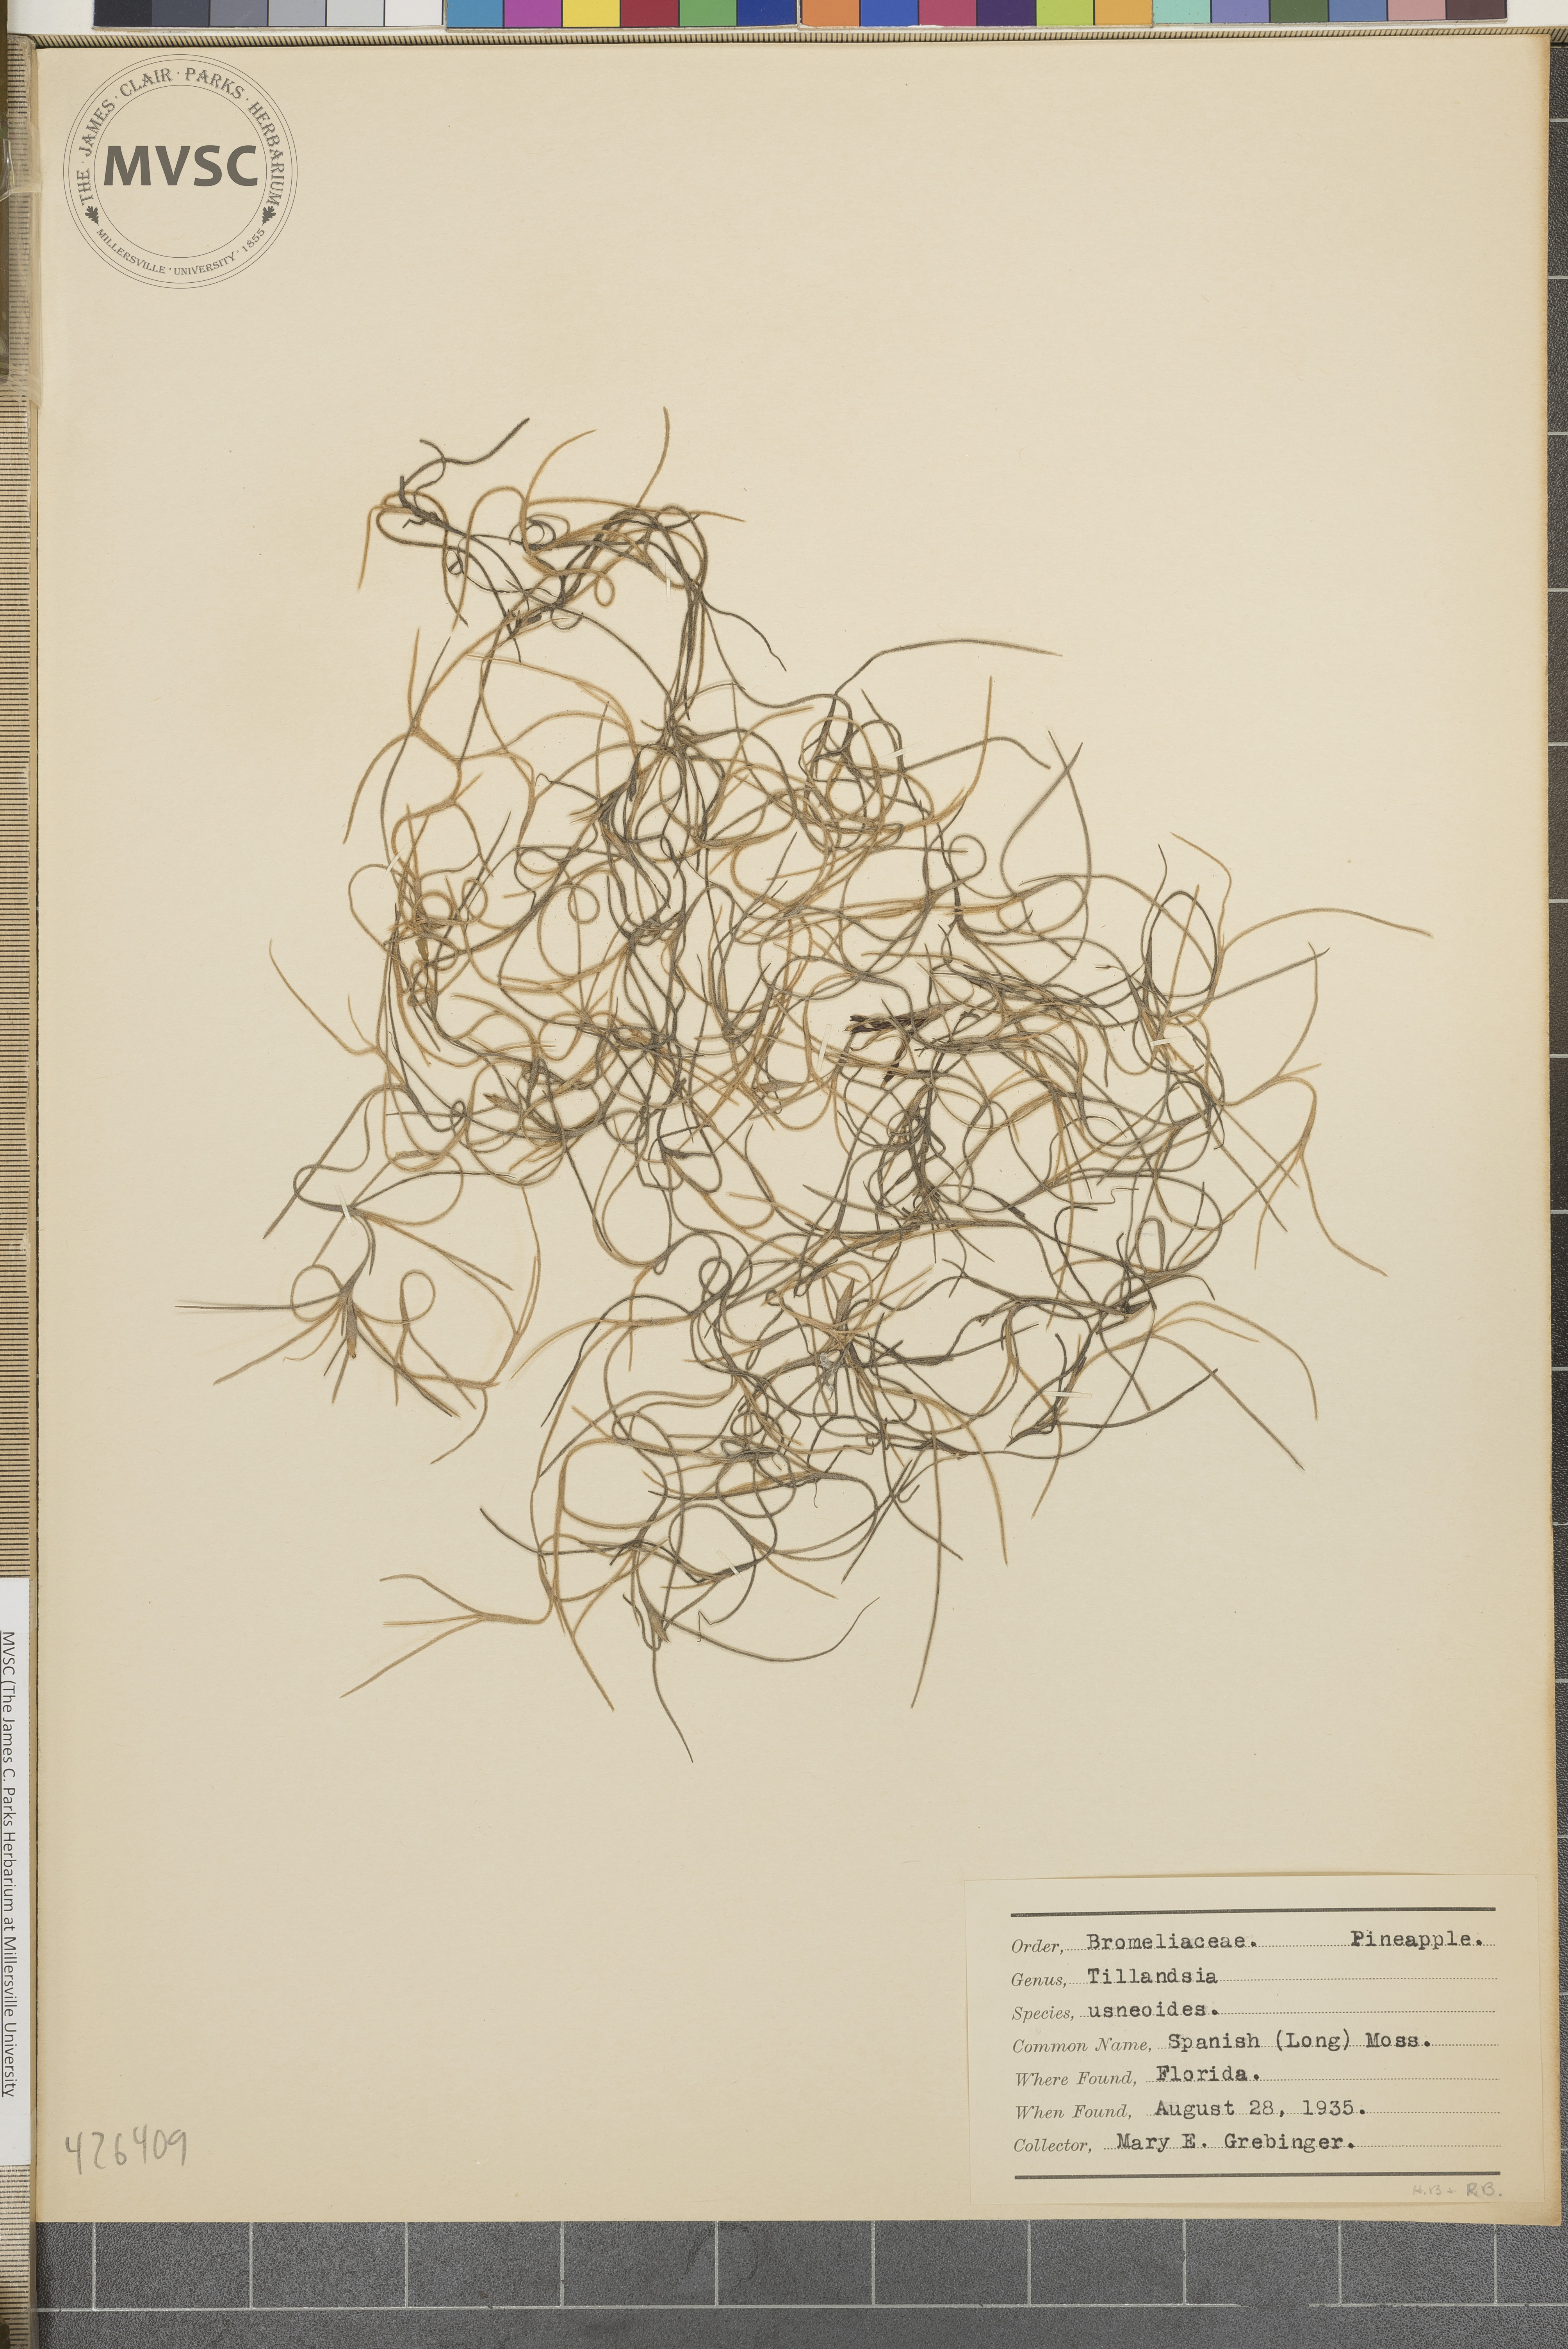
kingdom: Plantae
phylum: Tracheophyta
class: Liliopsida
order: Poales
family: Bromeliaceae
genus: Tillandsia
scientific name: Tillandsia usneoides
